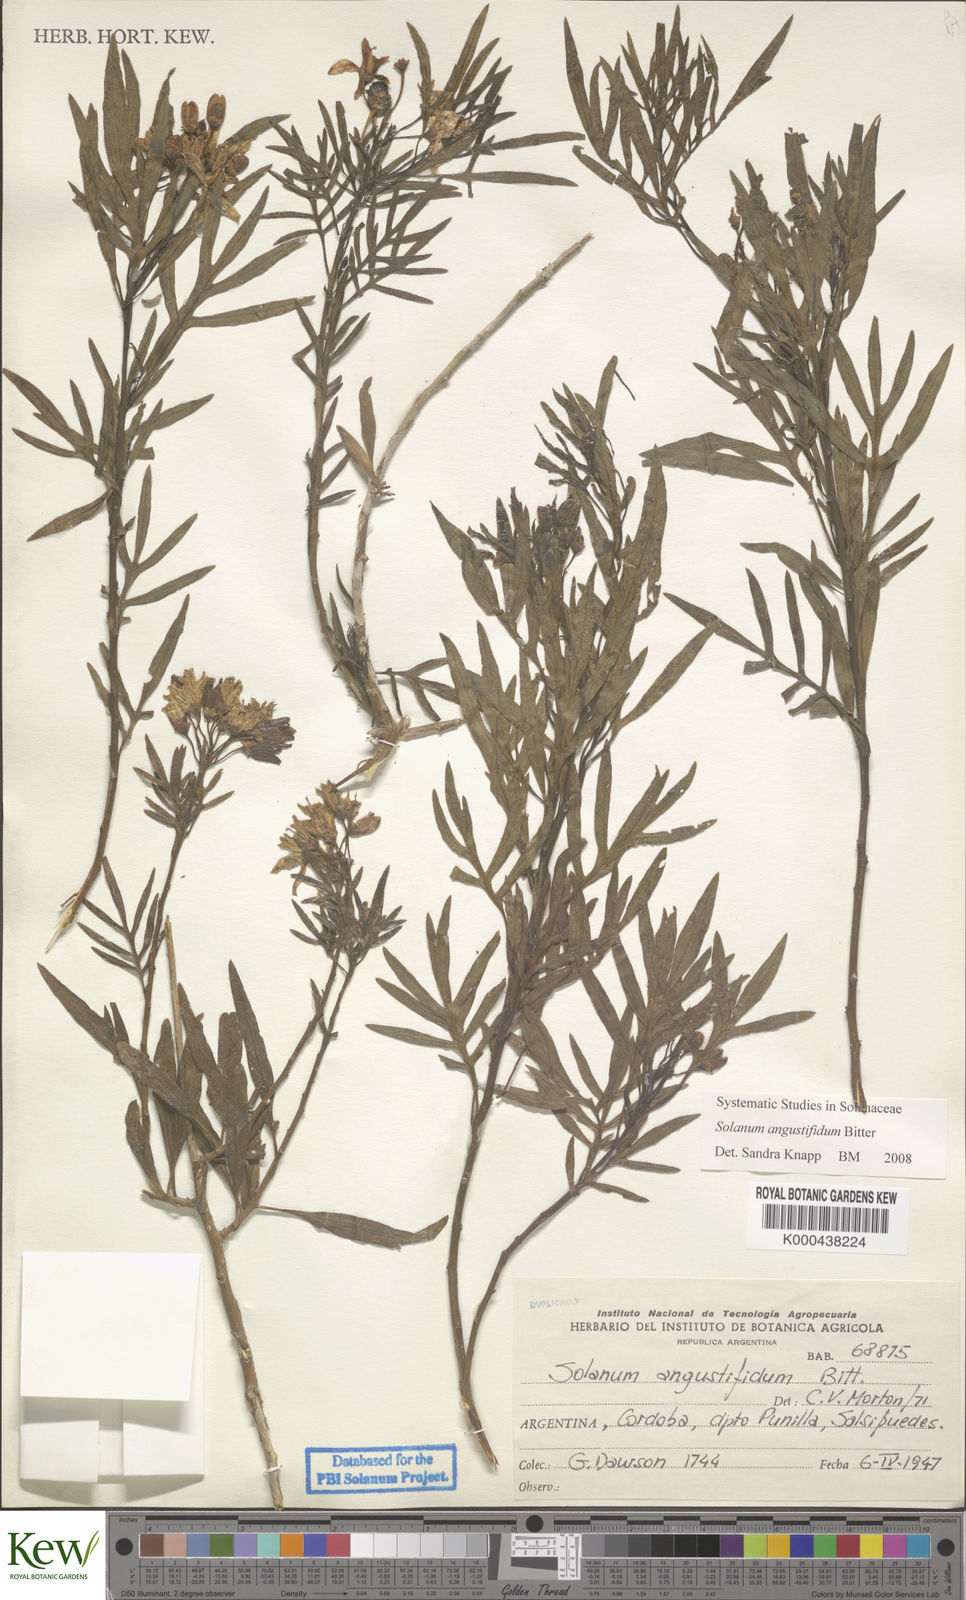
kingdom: Plantae
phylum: Tracheophyta
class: Magnoliopsida
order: Solanales
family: Solanaceae
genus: Solanum
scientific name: Solanum angustifidum
